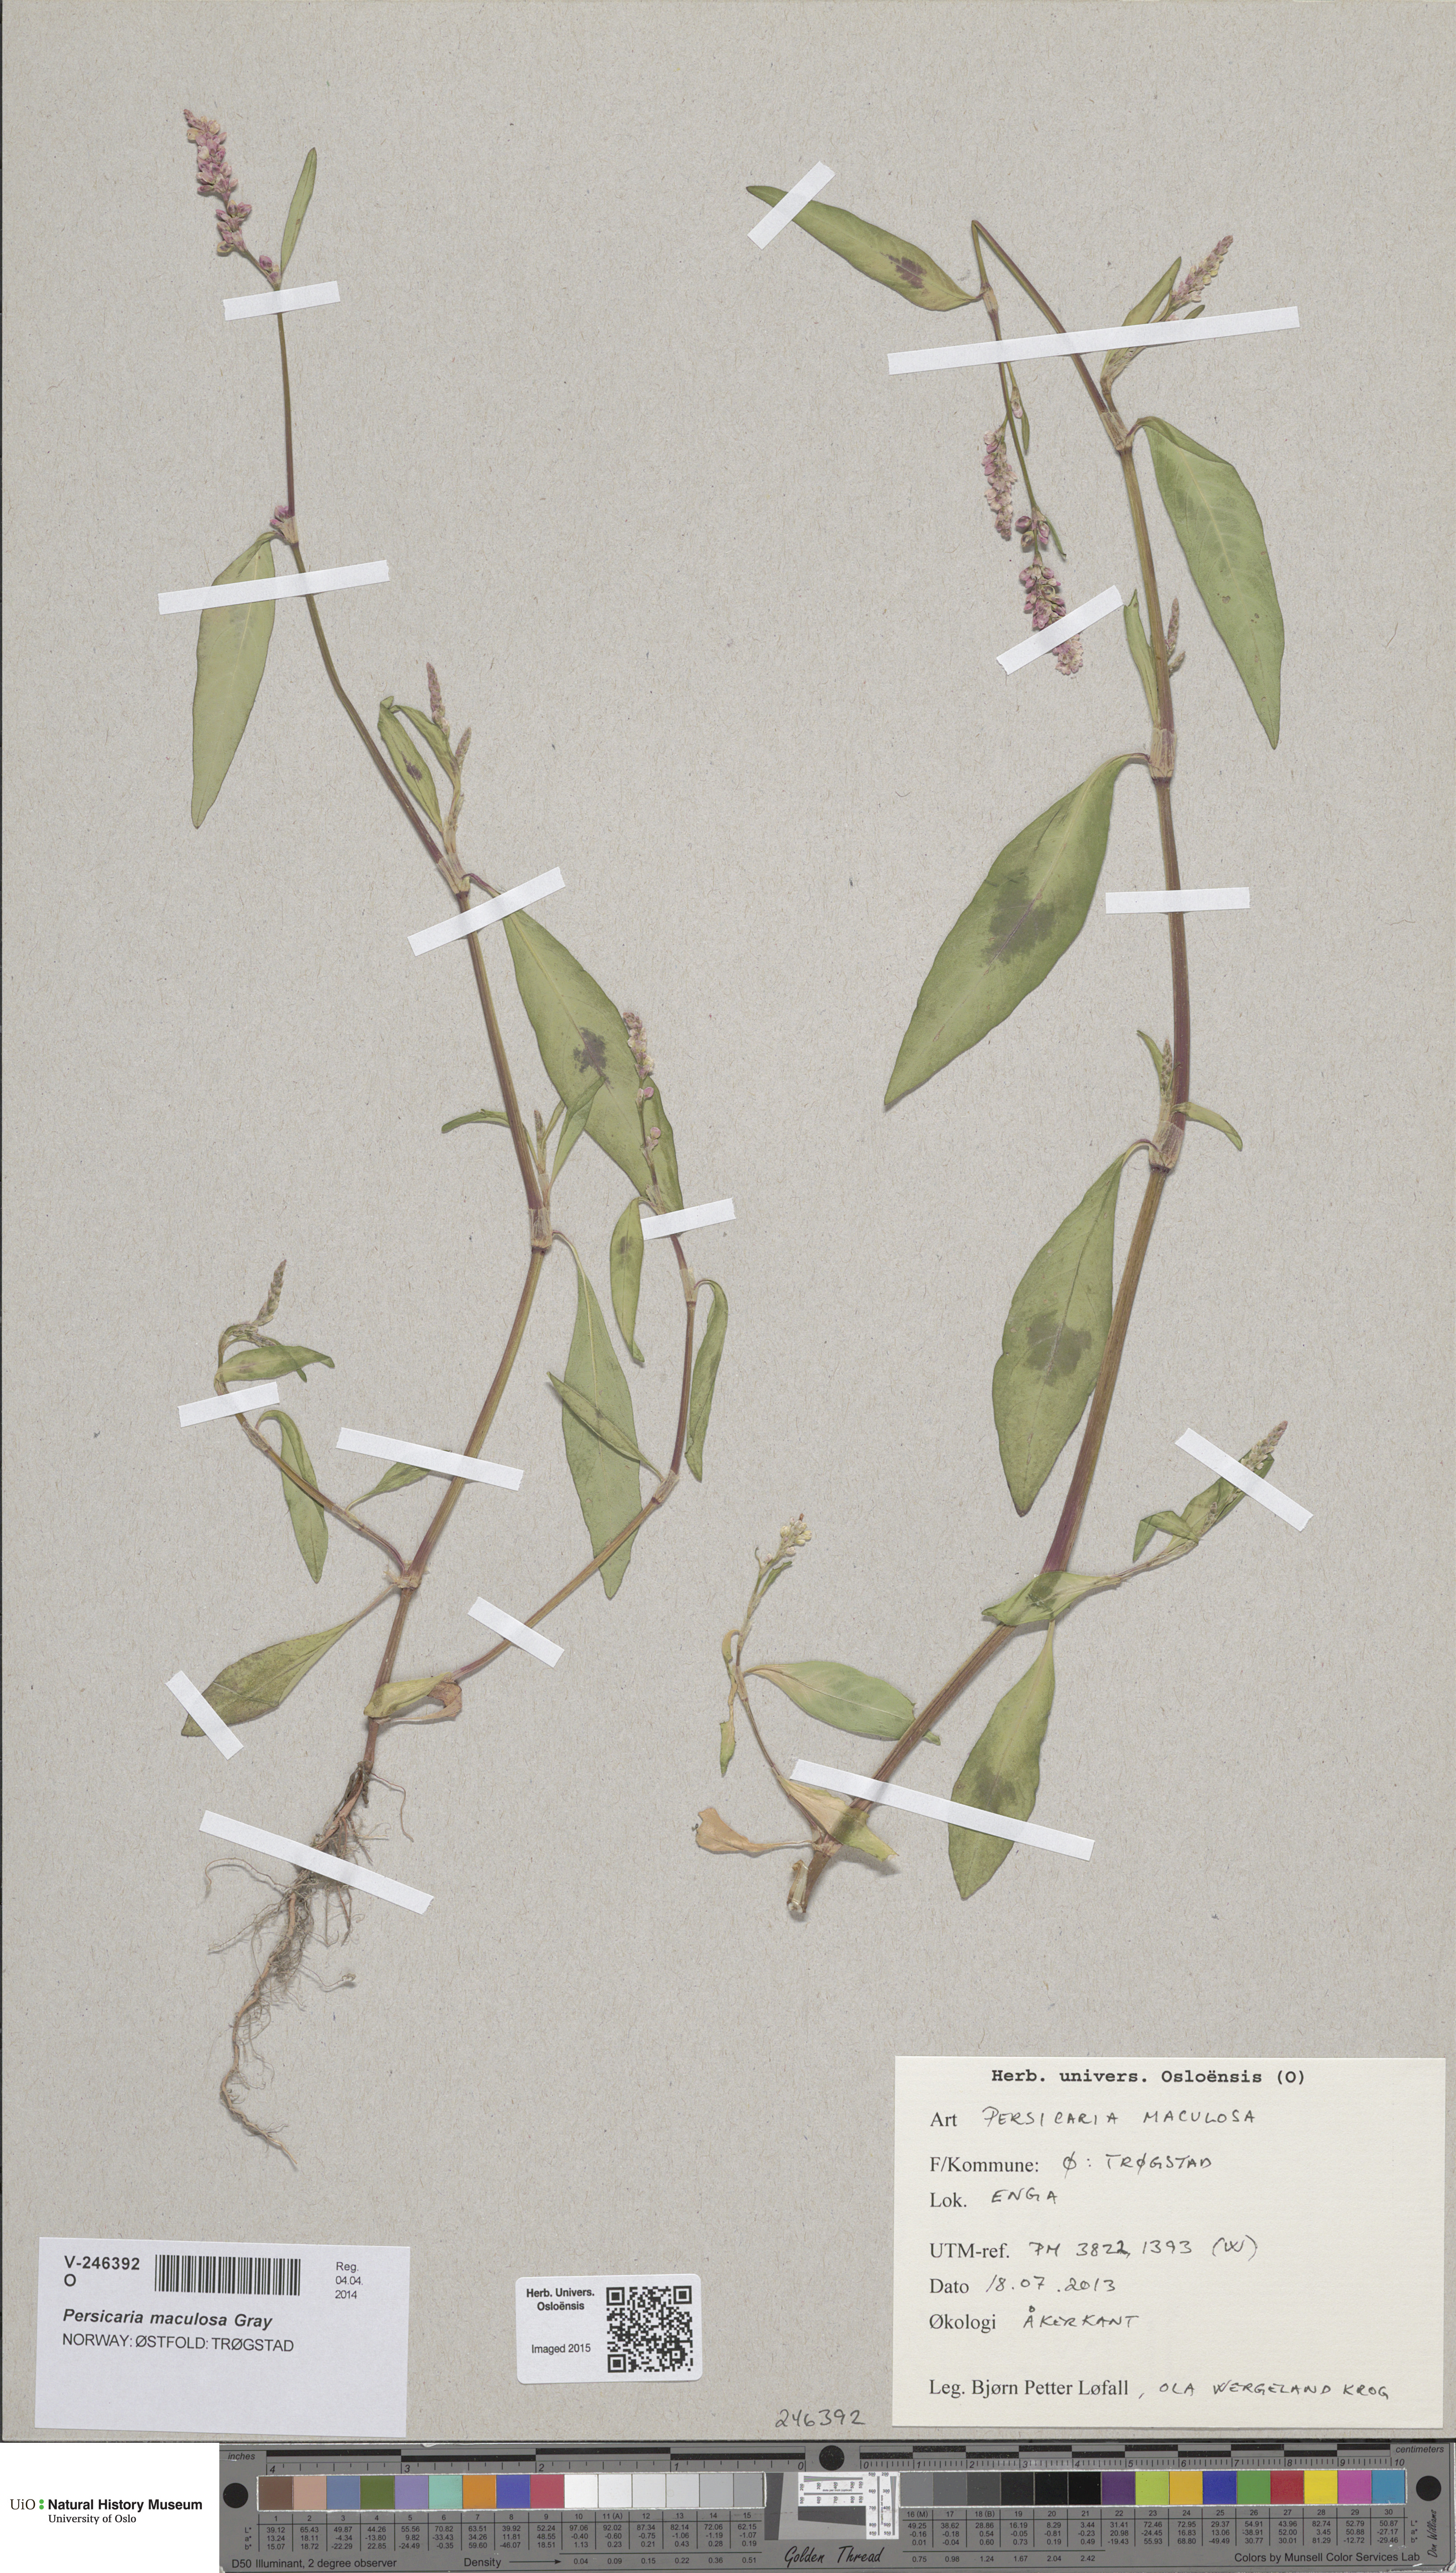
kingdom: Plantae
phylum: Tracheophyta
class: Magnoliopsida
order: Caryophyllales
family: Polygonaceae
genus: Persicaria
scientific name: Persicaria lapathifolia
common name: Curlytop knotweed
